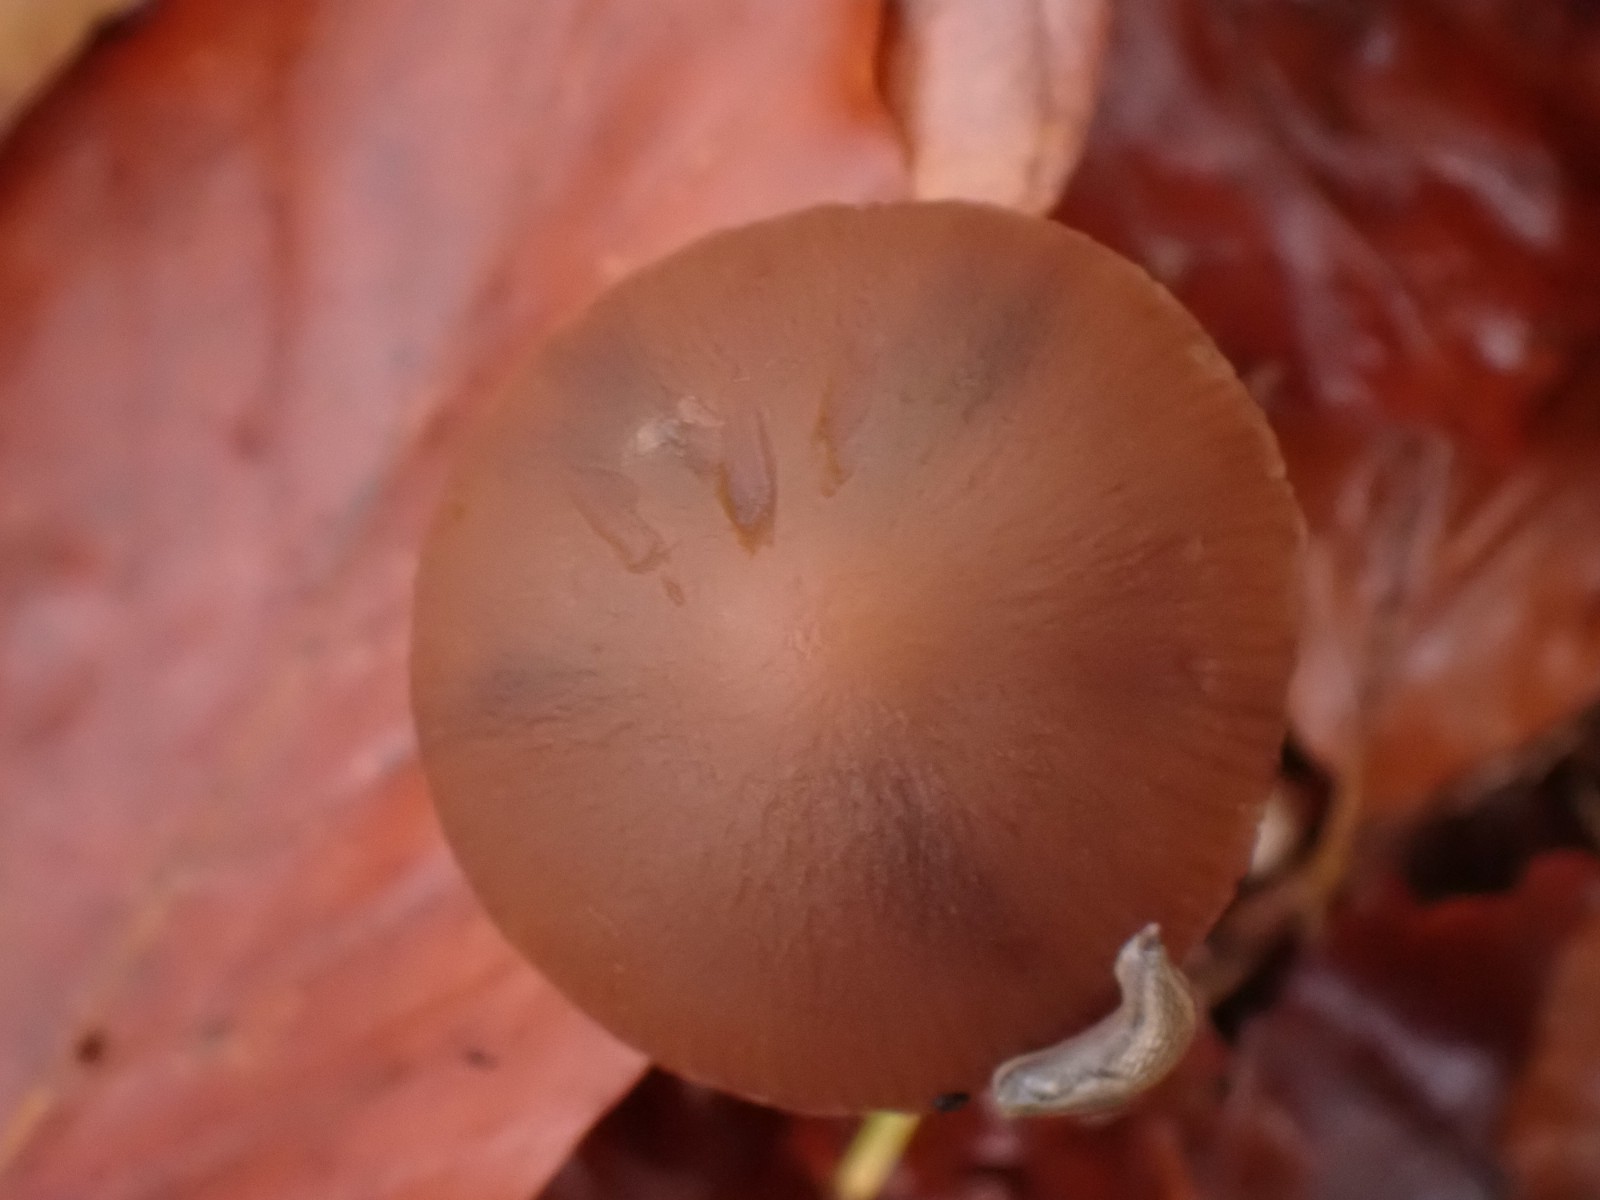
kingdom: Fungi
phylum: Basidiomycota
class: Agaricomycetes
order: Agaricales
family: Psathyrellaceae
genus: Psathyrella
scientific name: Psathyrella
